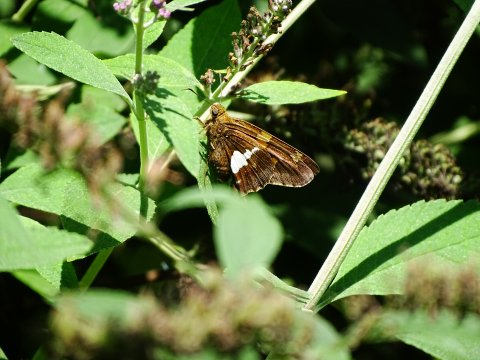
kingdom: Animalia
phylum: Arthropoda
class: Insecta
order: Lepidoptera
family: Hesperiidae
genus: Epargyreus
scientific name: Epargyreus clarus
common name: Silver-spotted Skipper
